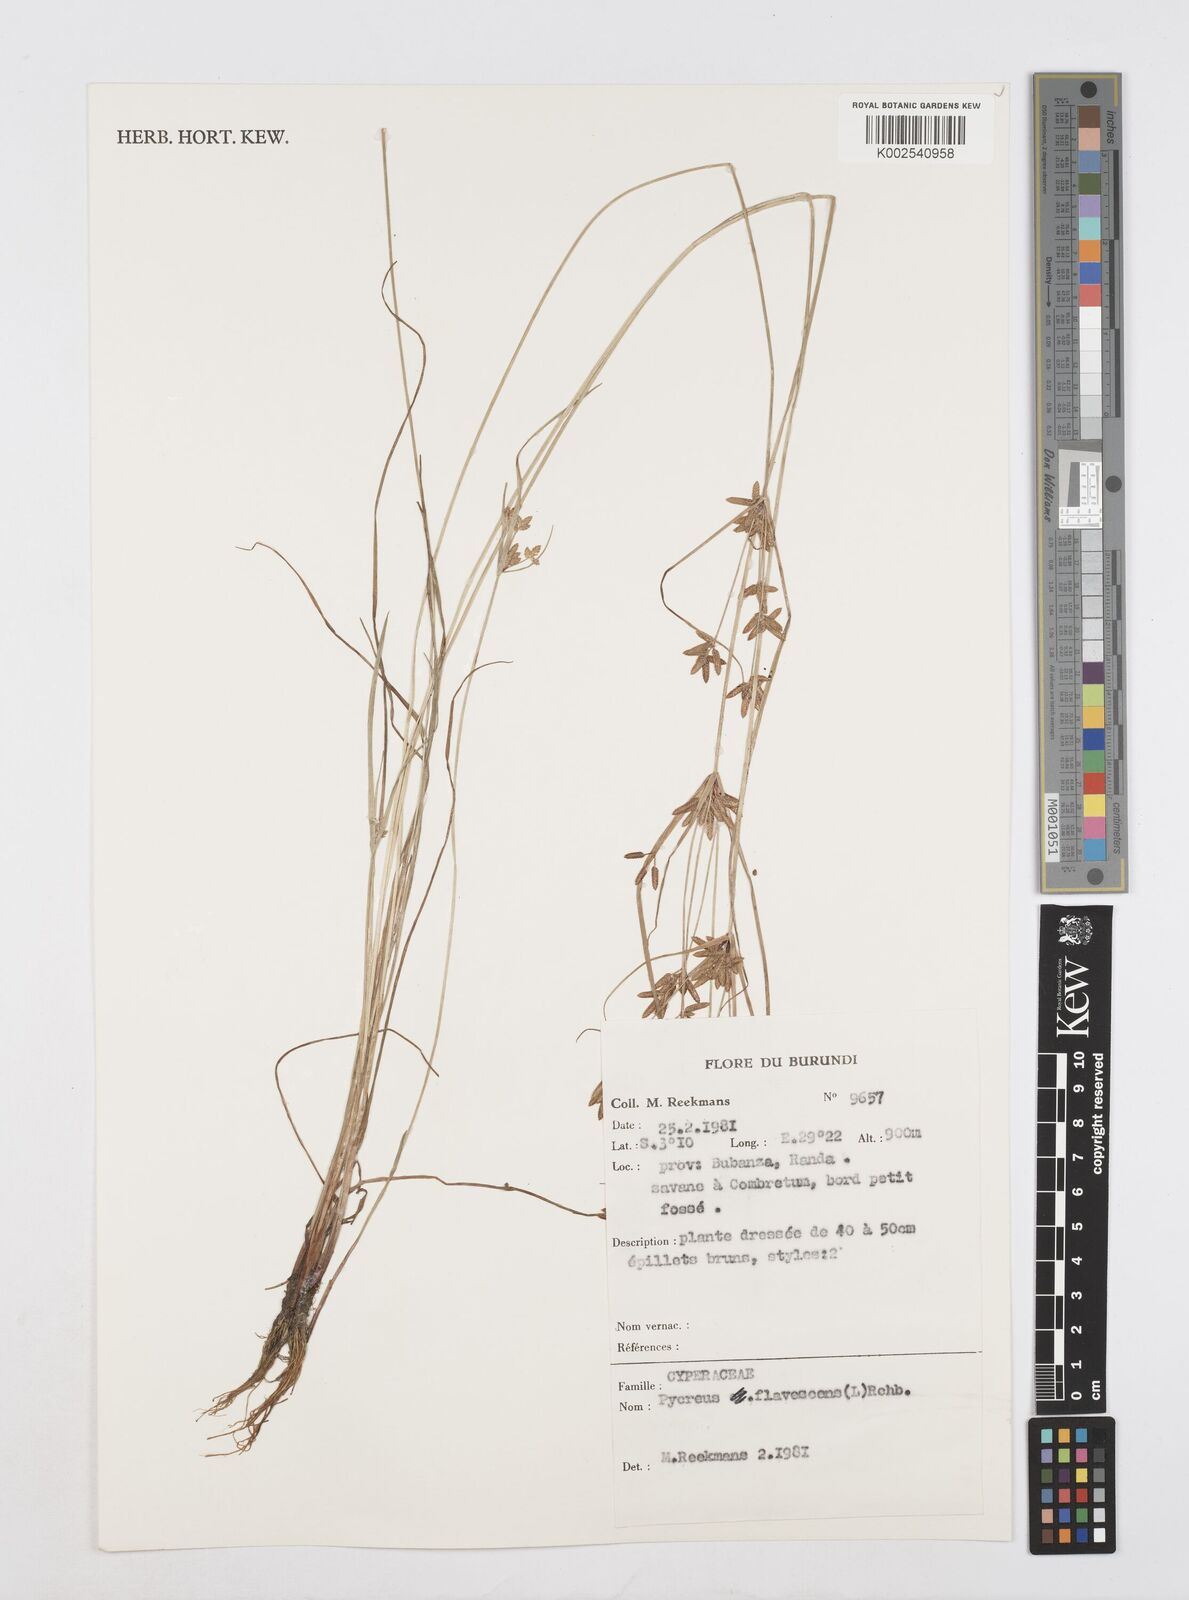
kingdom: Plantae
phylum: Tracheophyta
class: Liliopsida
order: Poales
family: Cyperaceae
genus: Cyperus
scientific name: Cyperus flavescens
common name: Yellow galingale
